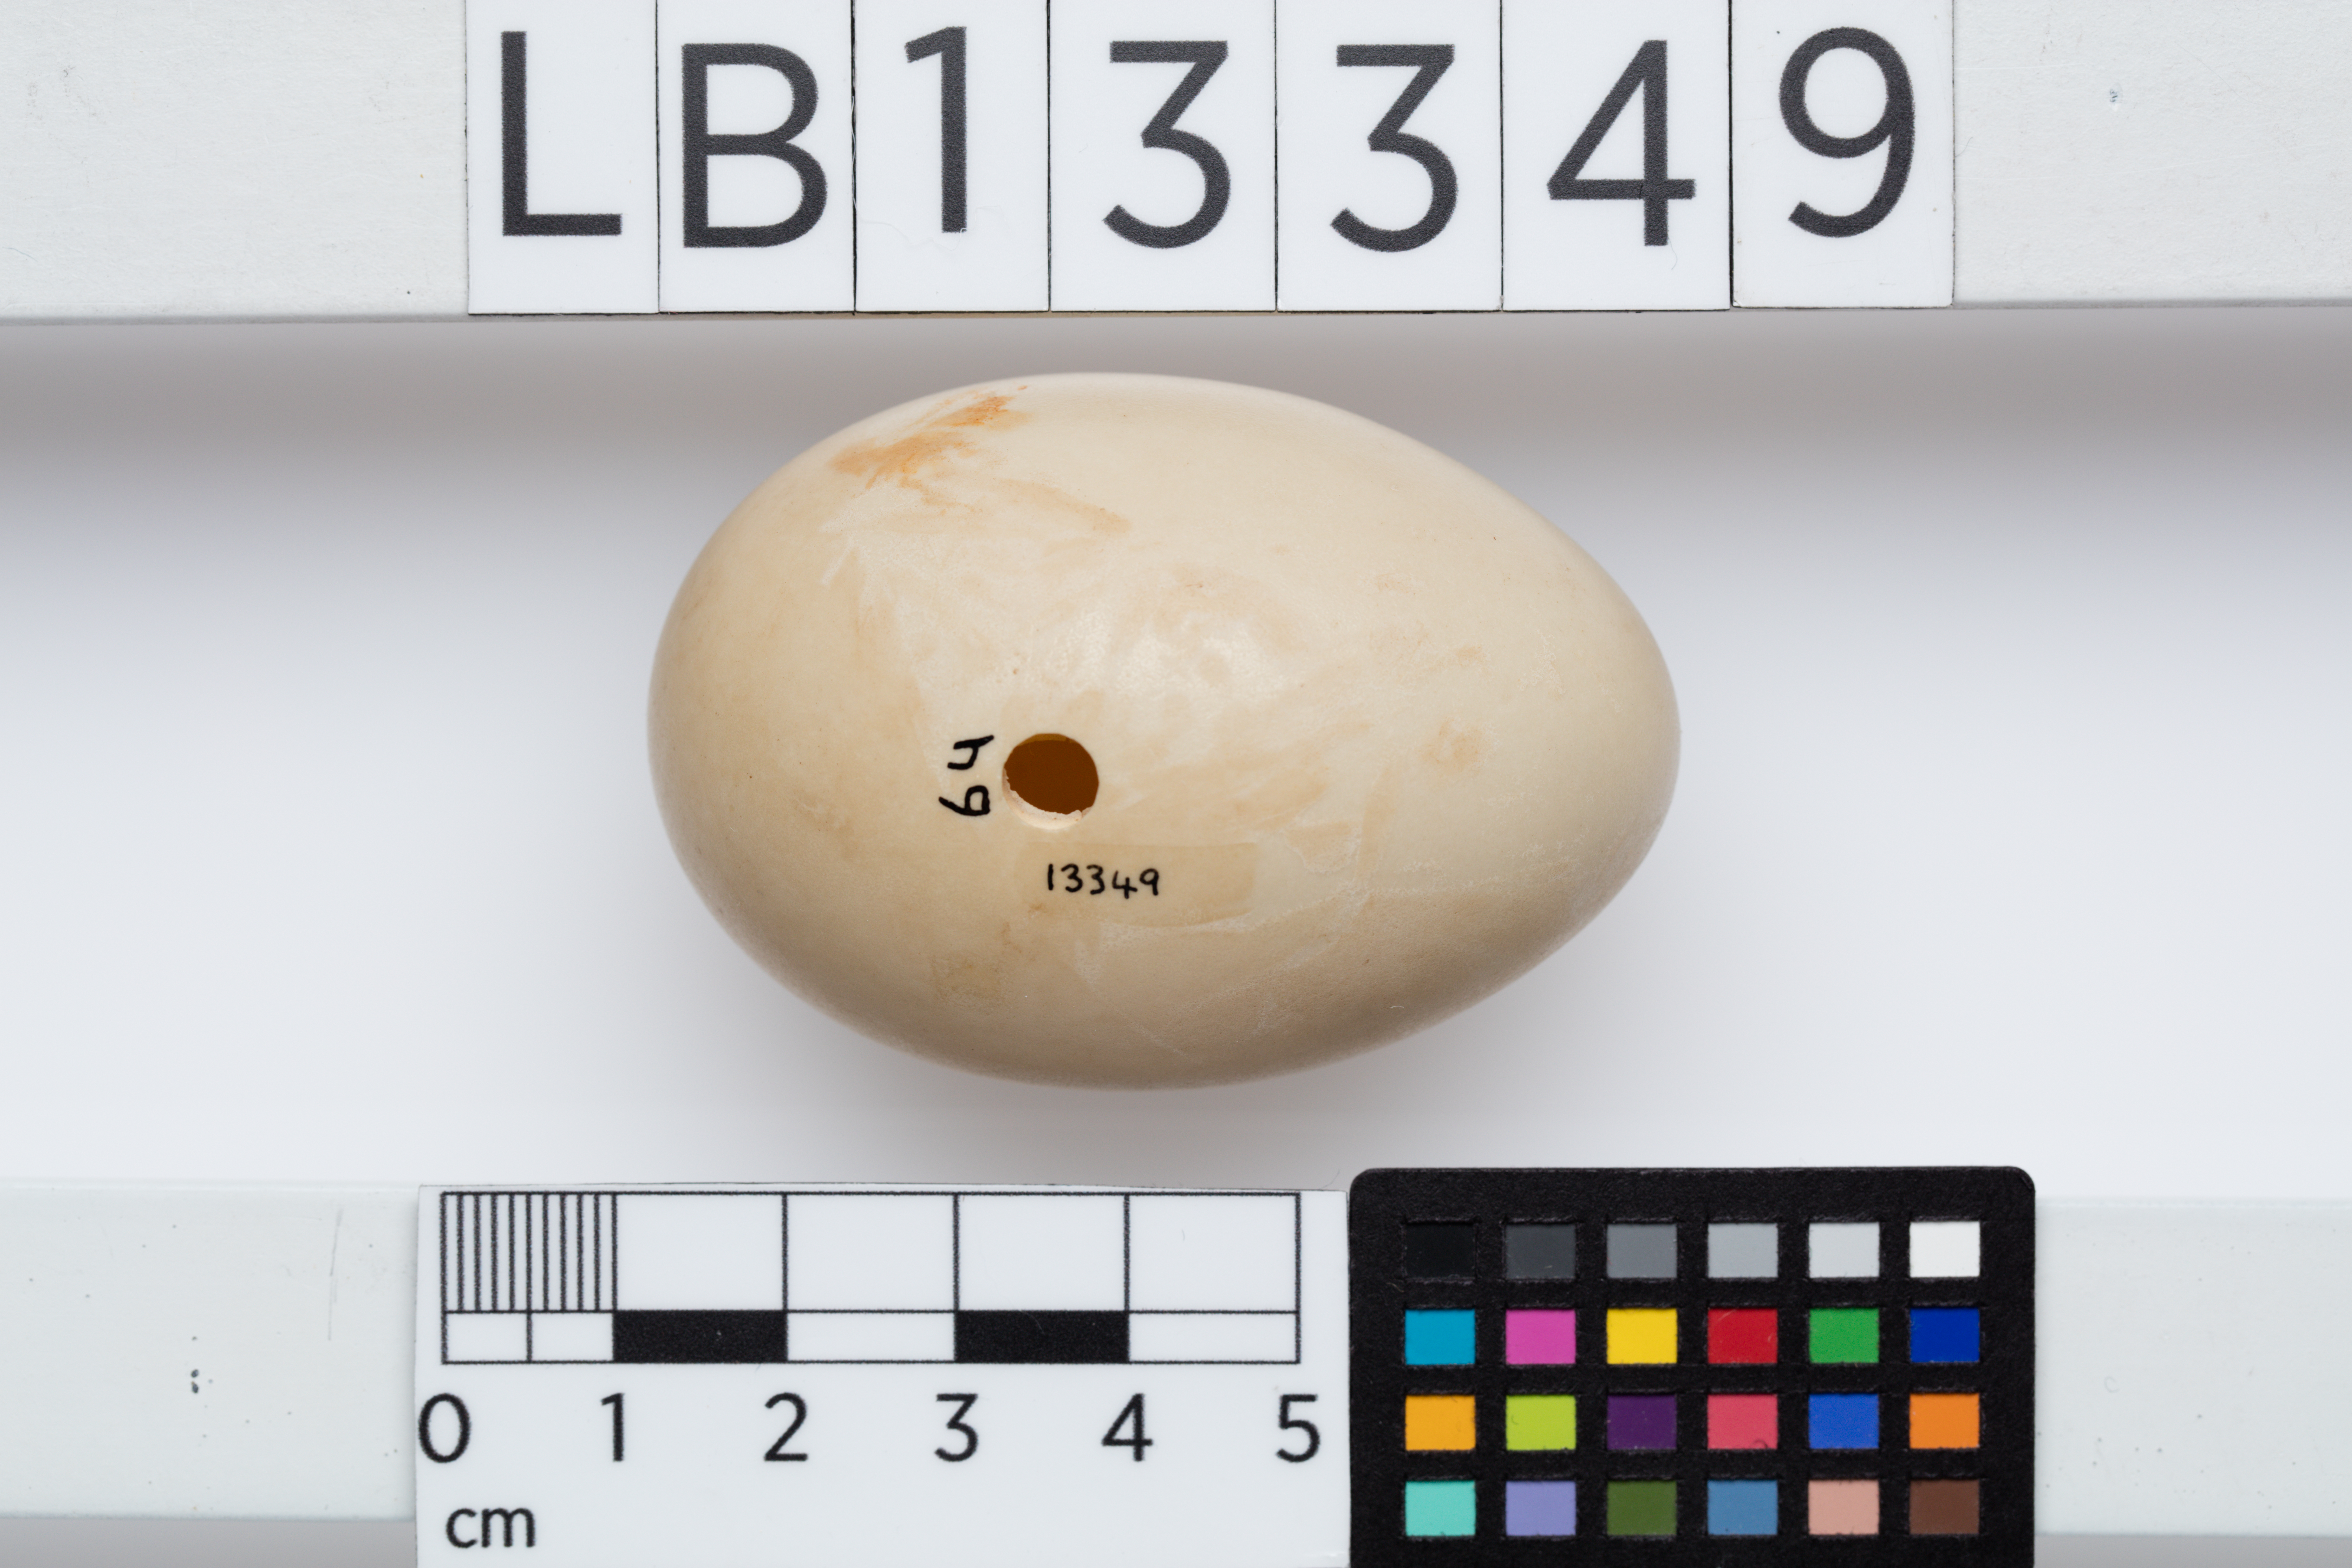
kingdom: Animalia
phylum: Chordata
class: Aves
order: Anseriformes
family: Anatidae
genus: Aythya
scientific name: Aythya novaeseelandiae
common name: New zealand scaup
